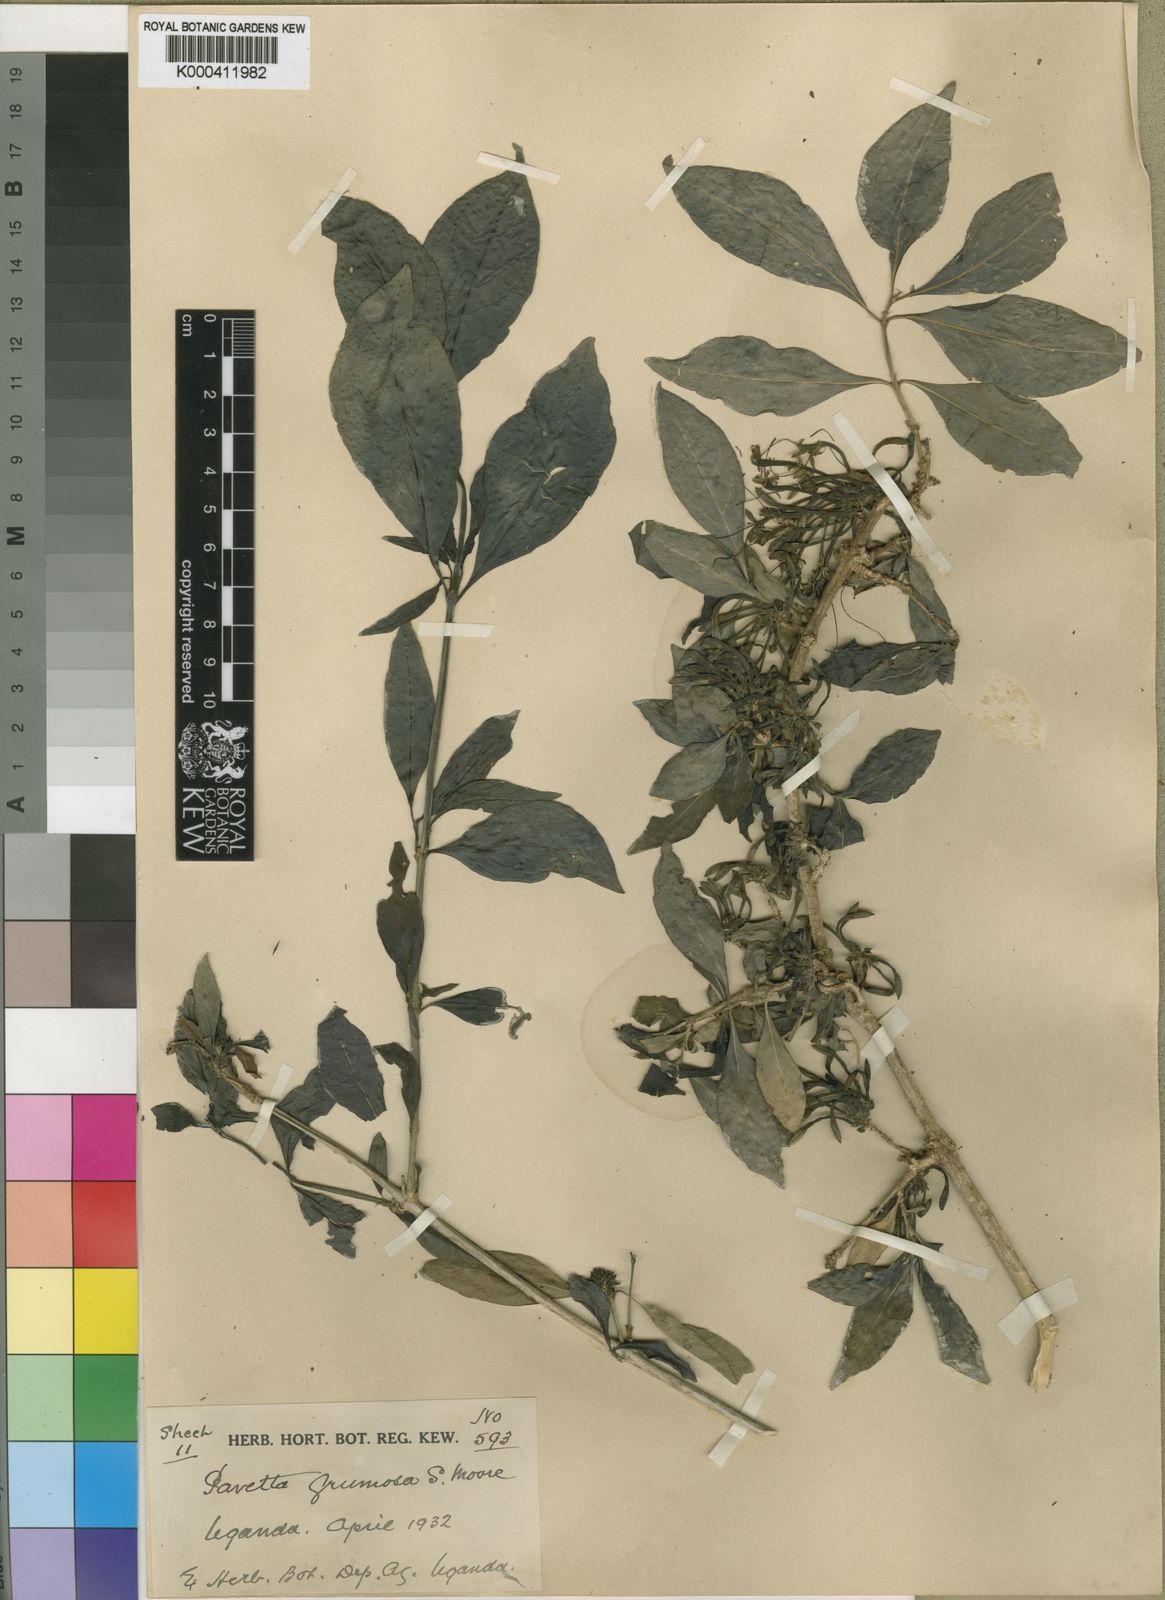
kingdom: Plantae
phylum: Tracheophyta
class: Magnoliopsida
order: Gentianales
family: Rubiaceae
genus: Pavetta
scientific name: Pavetta subcana
